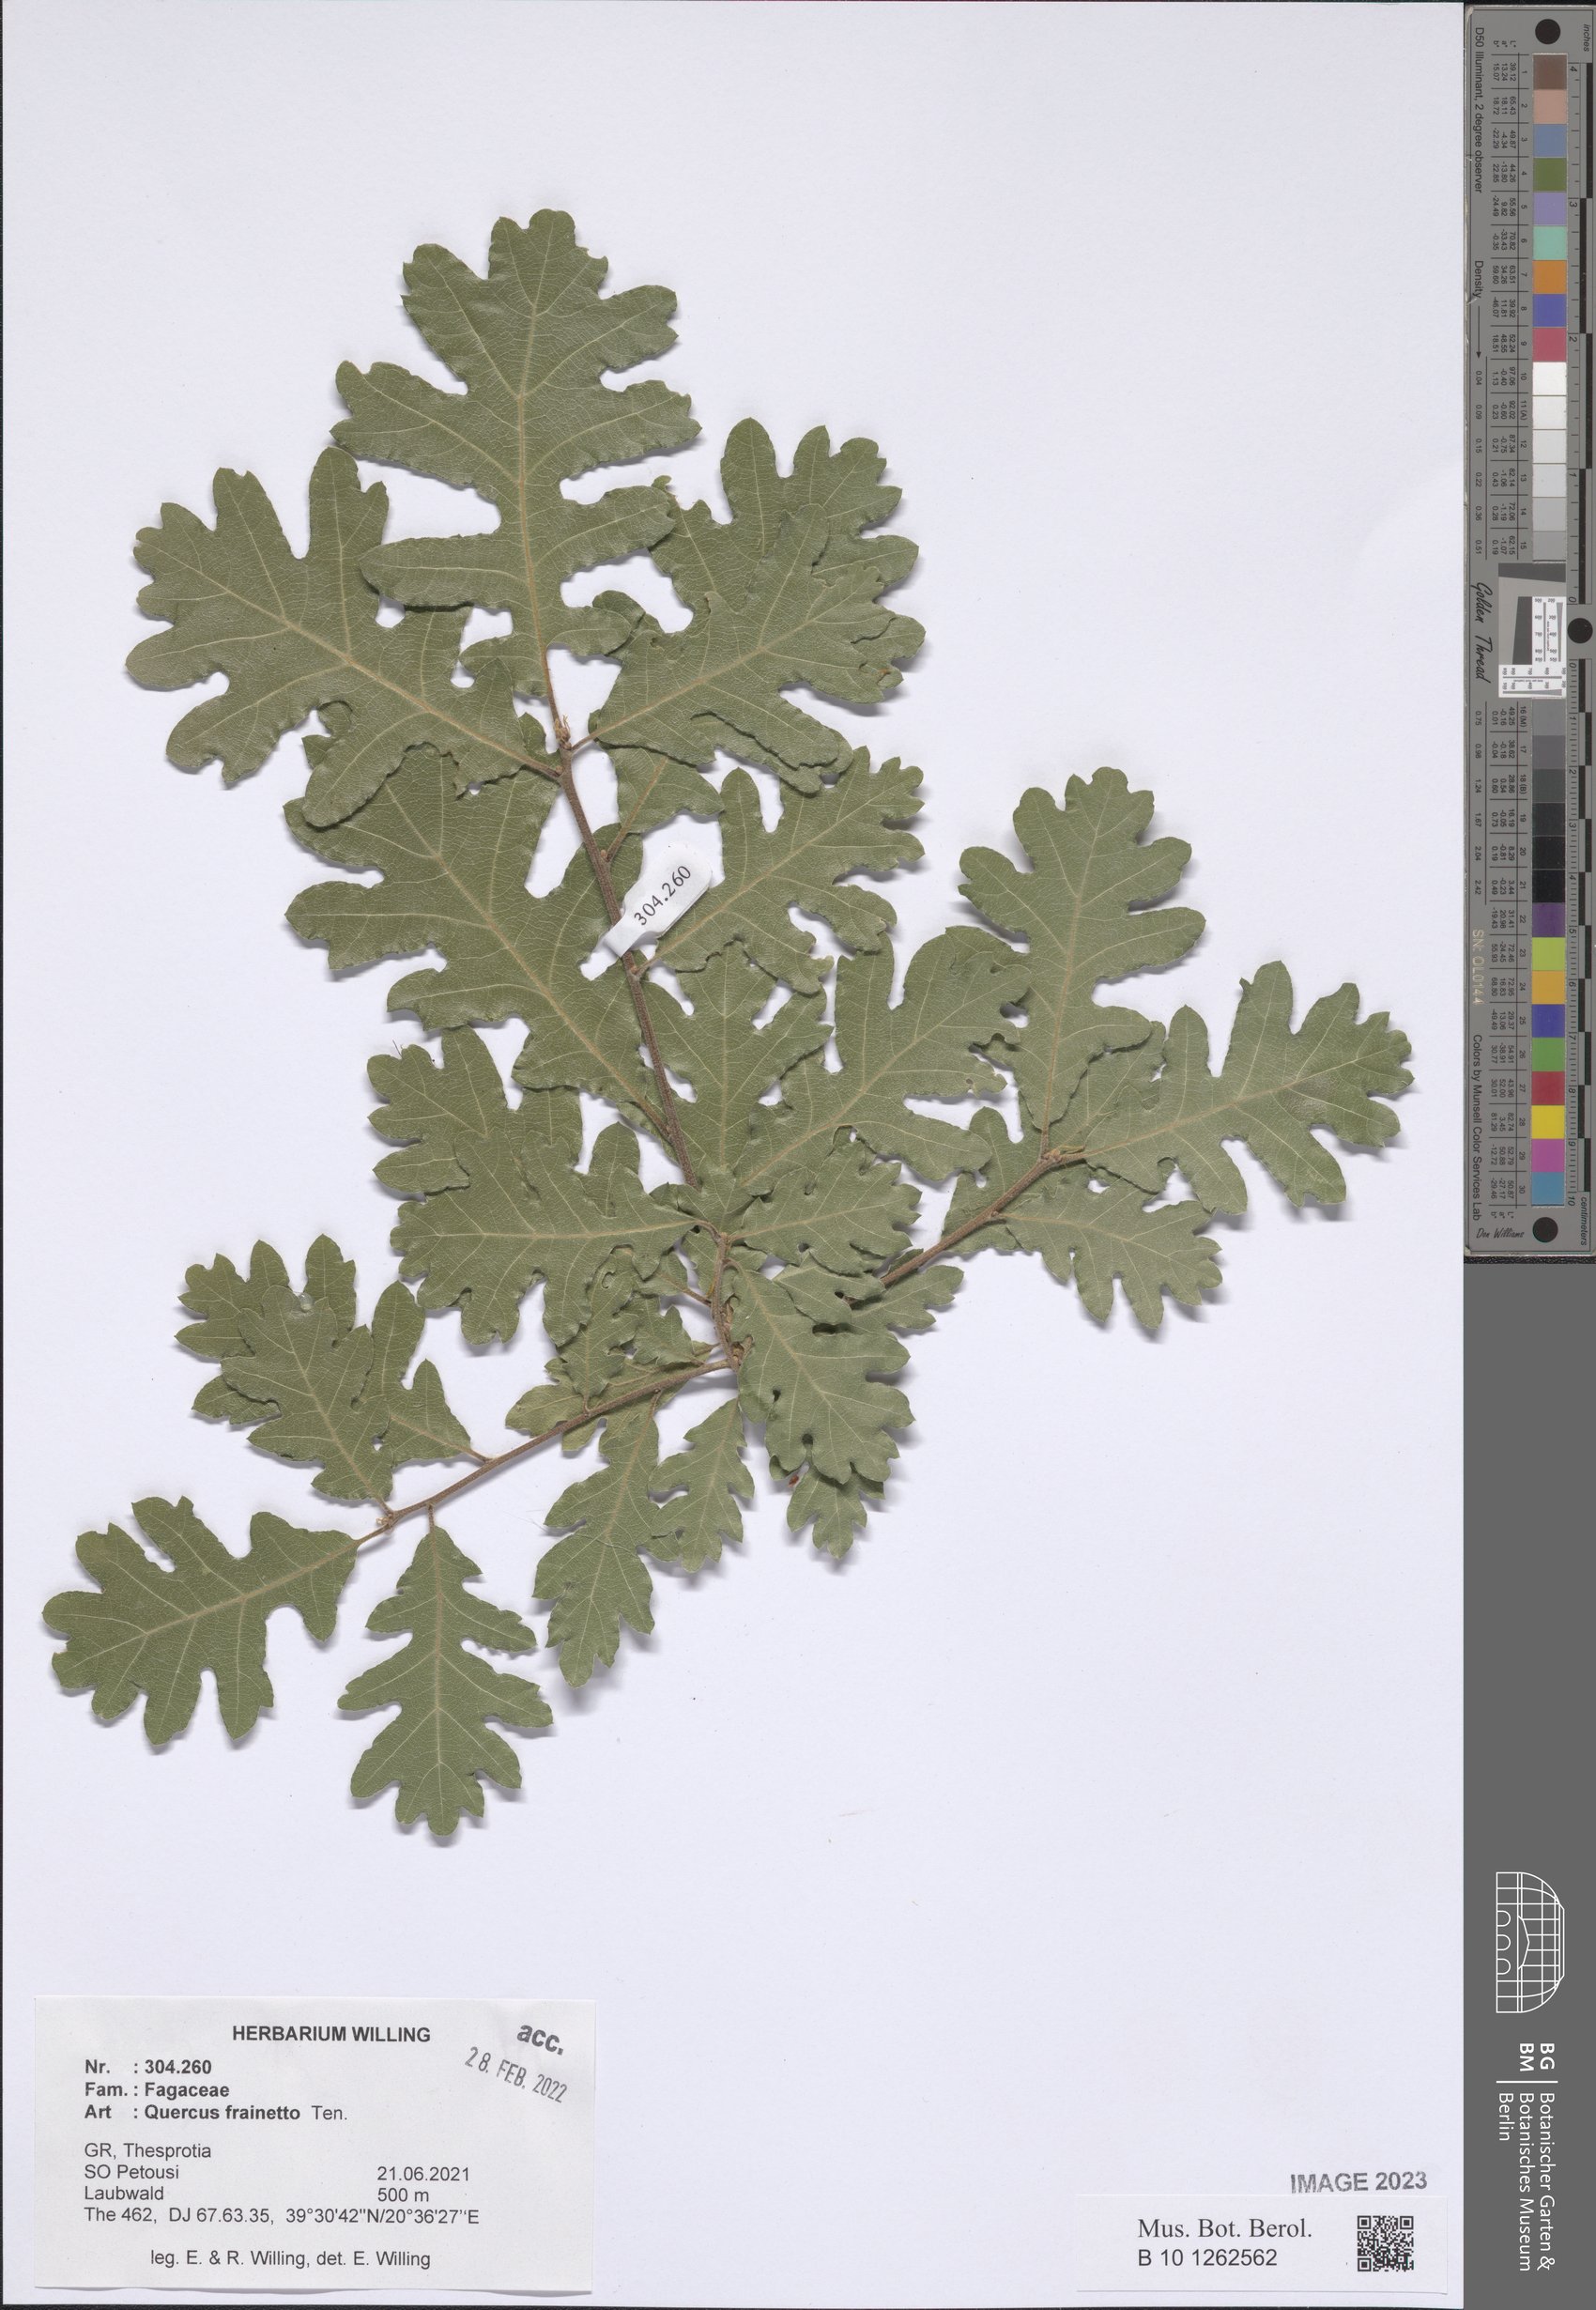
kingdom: Plantae
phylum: Tracheophyta
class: Magnoliopsida
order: Fagales
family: Fagaceae
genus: Quercus
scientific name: Quercus conferta
